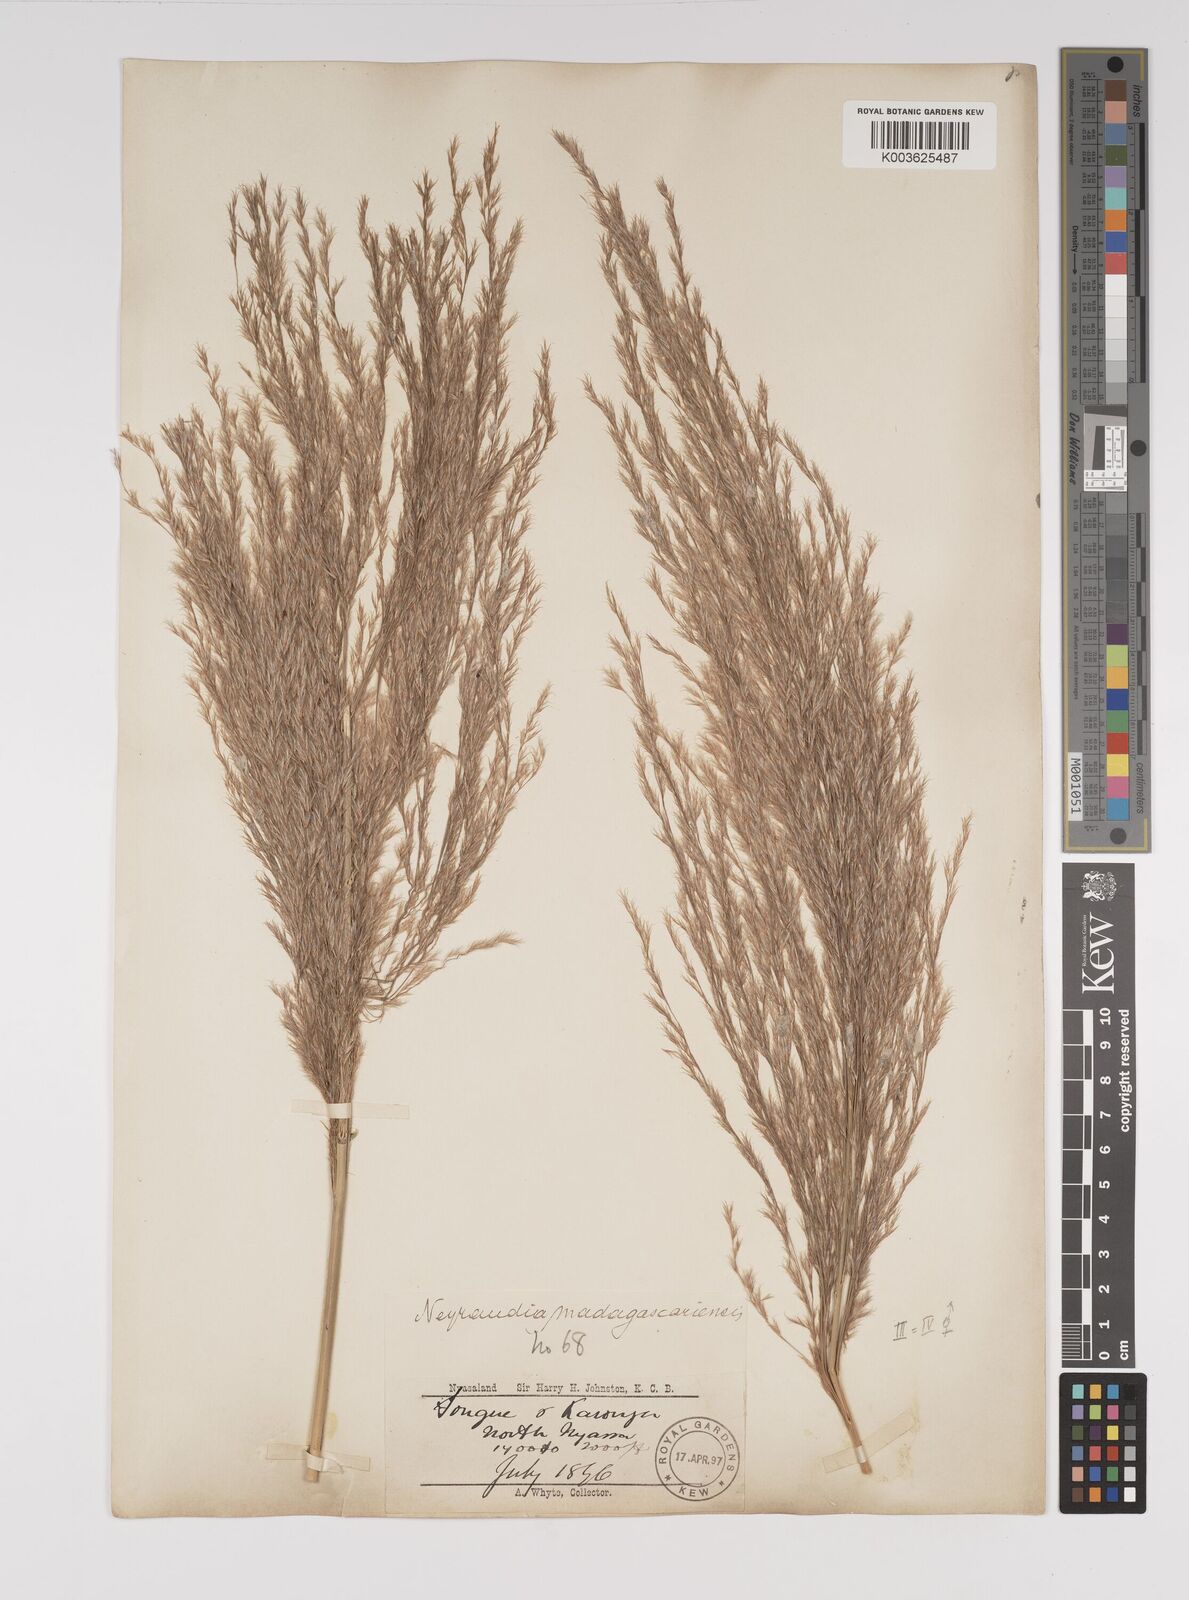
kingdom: Plantae
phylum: Tracheophyta
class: Liliopsida
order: Poales
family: Poaceae
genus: Neyraudia
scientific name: Neyraudia arundinacea
